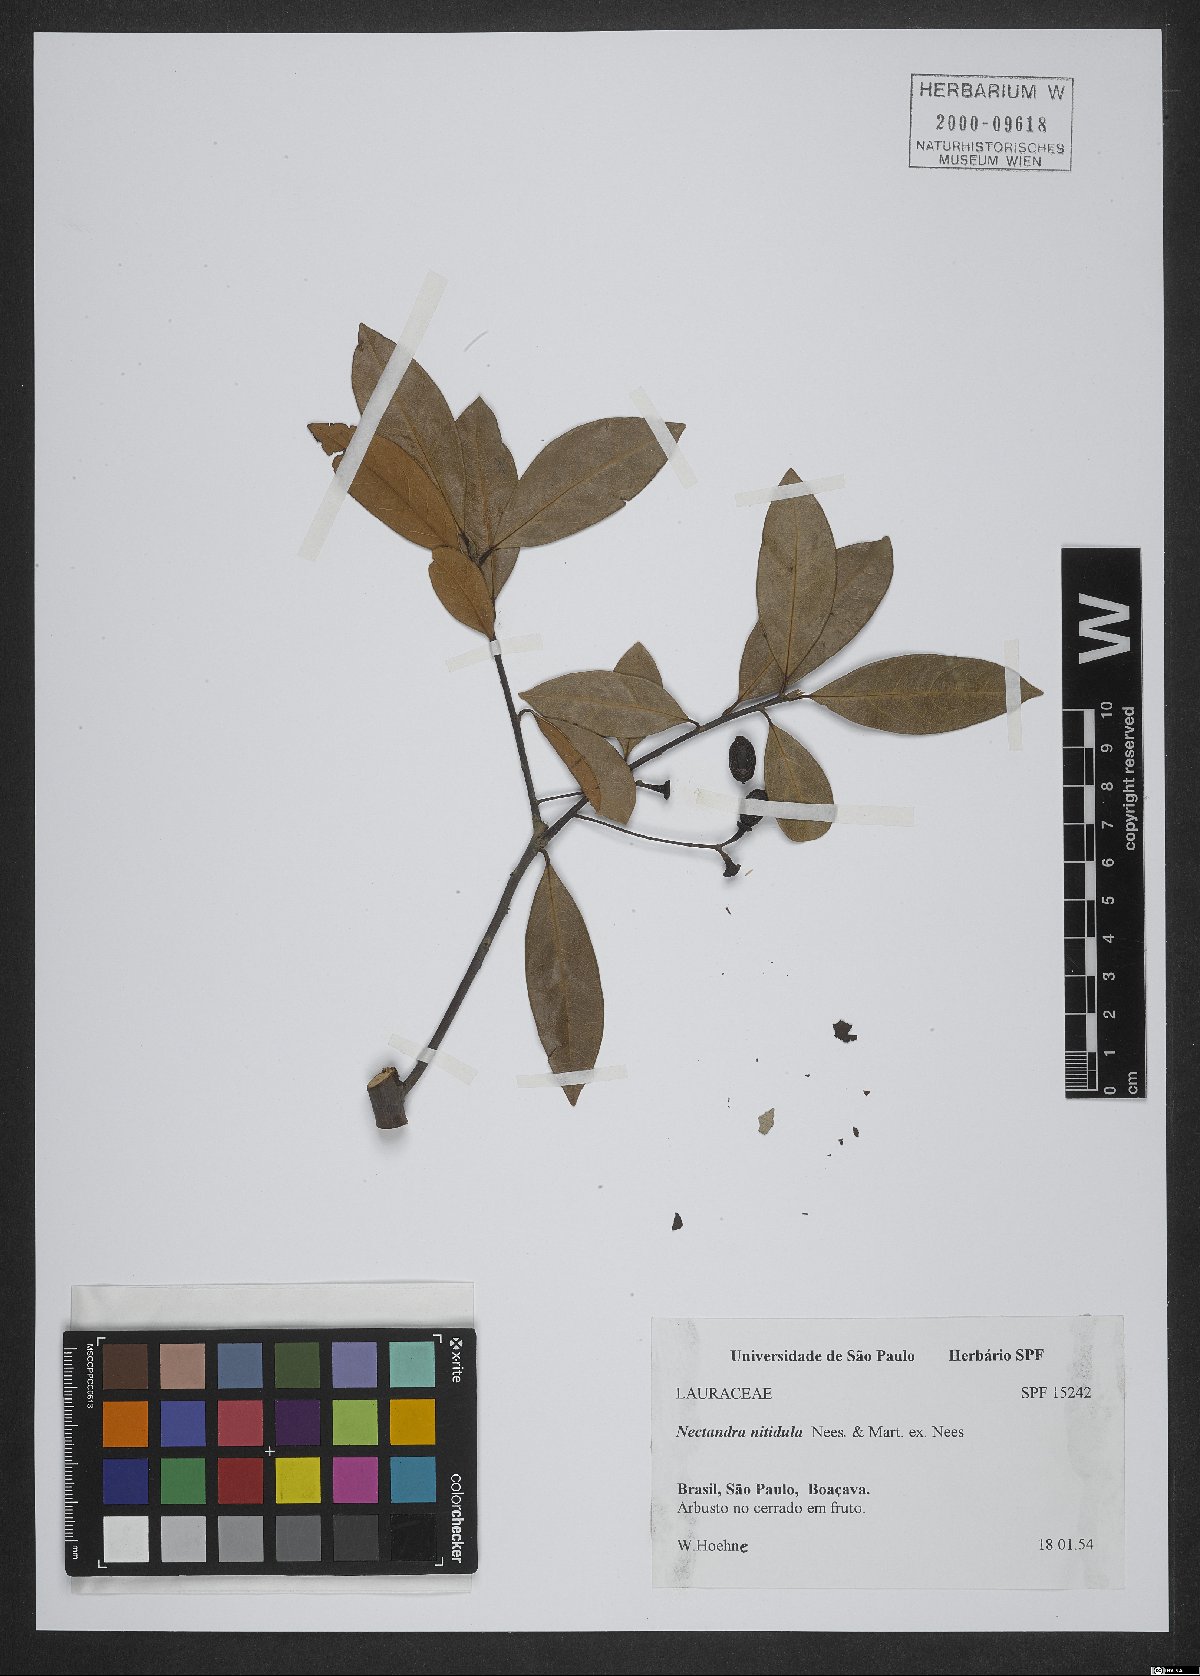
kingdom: Plantae
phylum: Tracheophyta
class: Magnoliopsida
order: Laurales
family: Lauraceae
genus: Nectandra
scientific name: Nectandra nitidula
